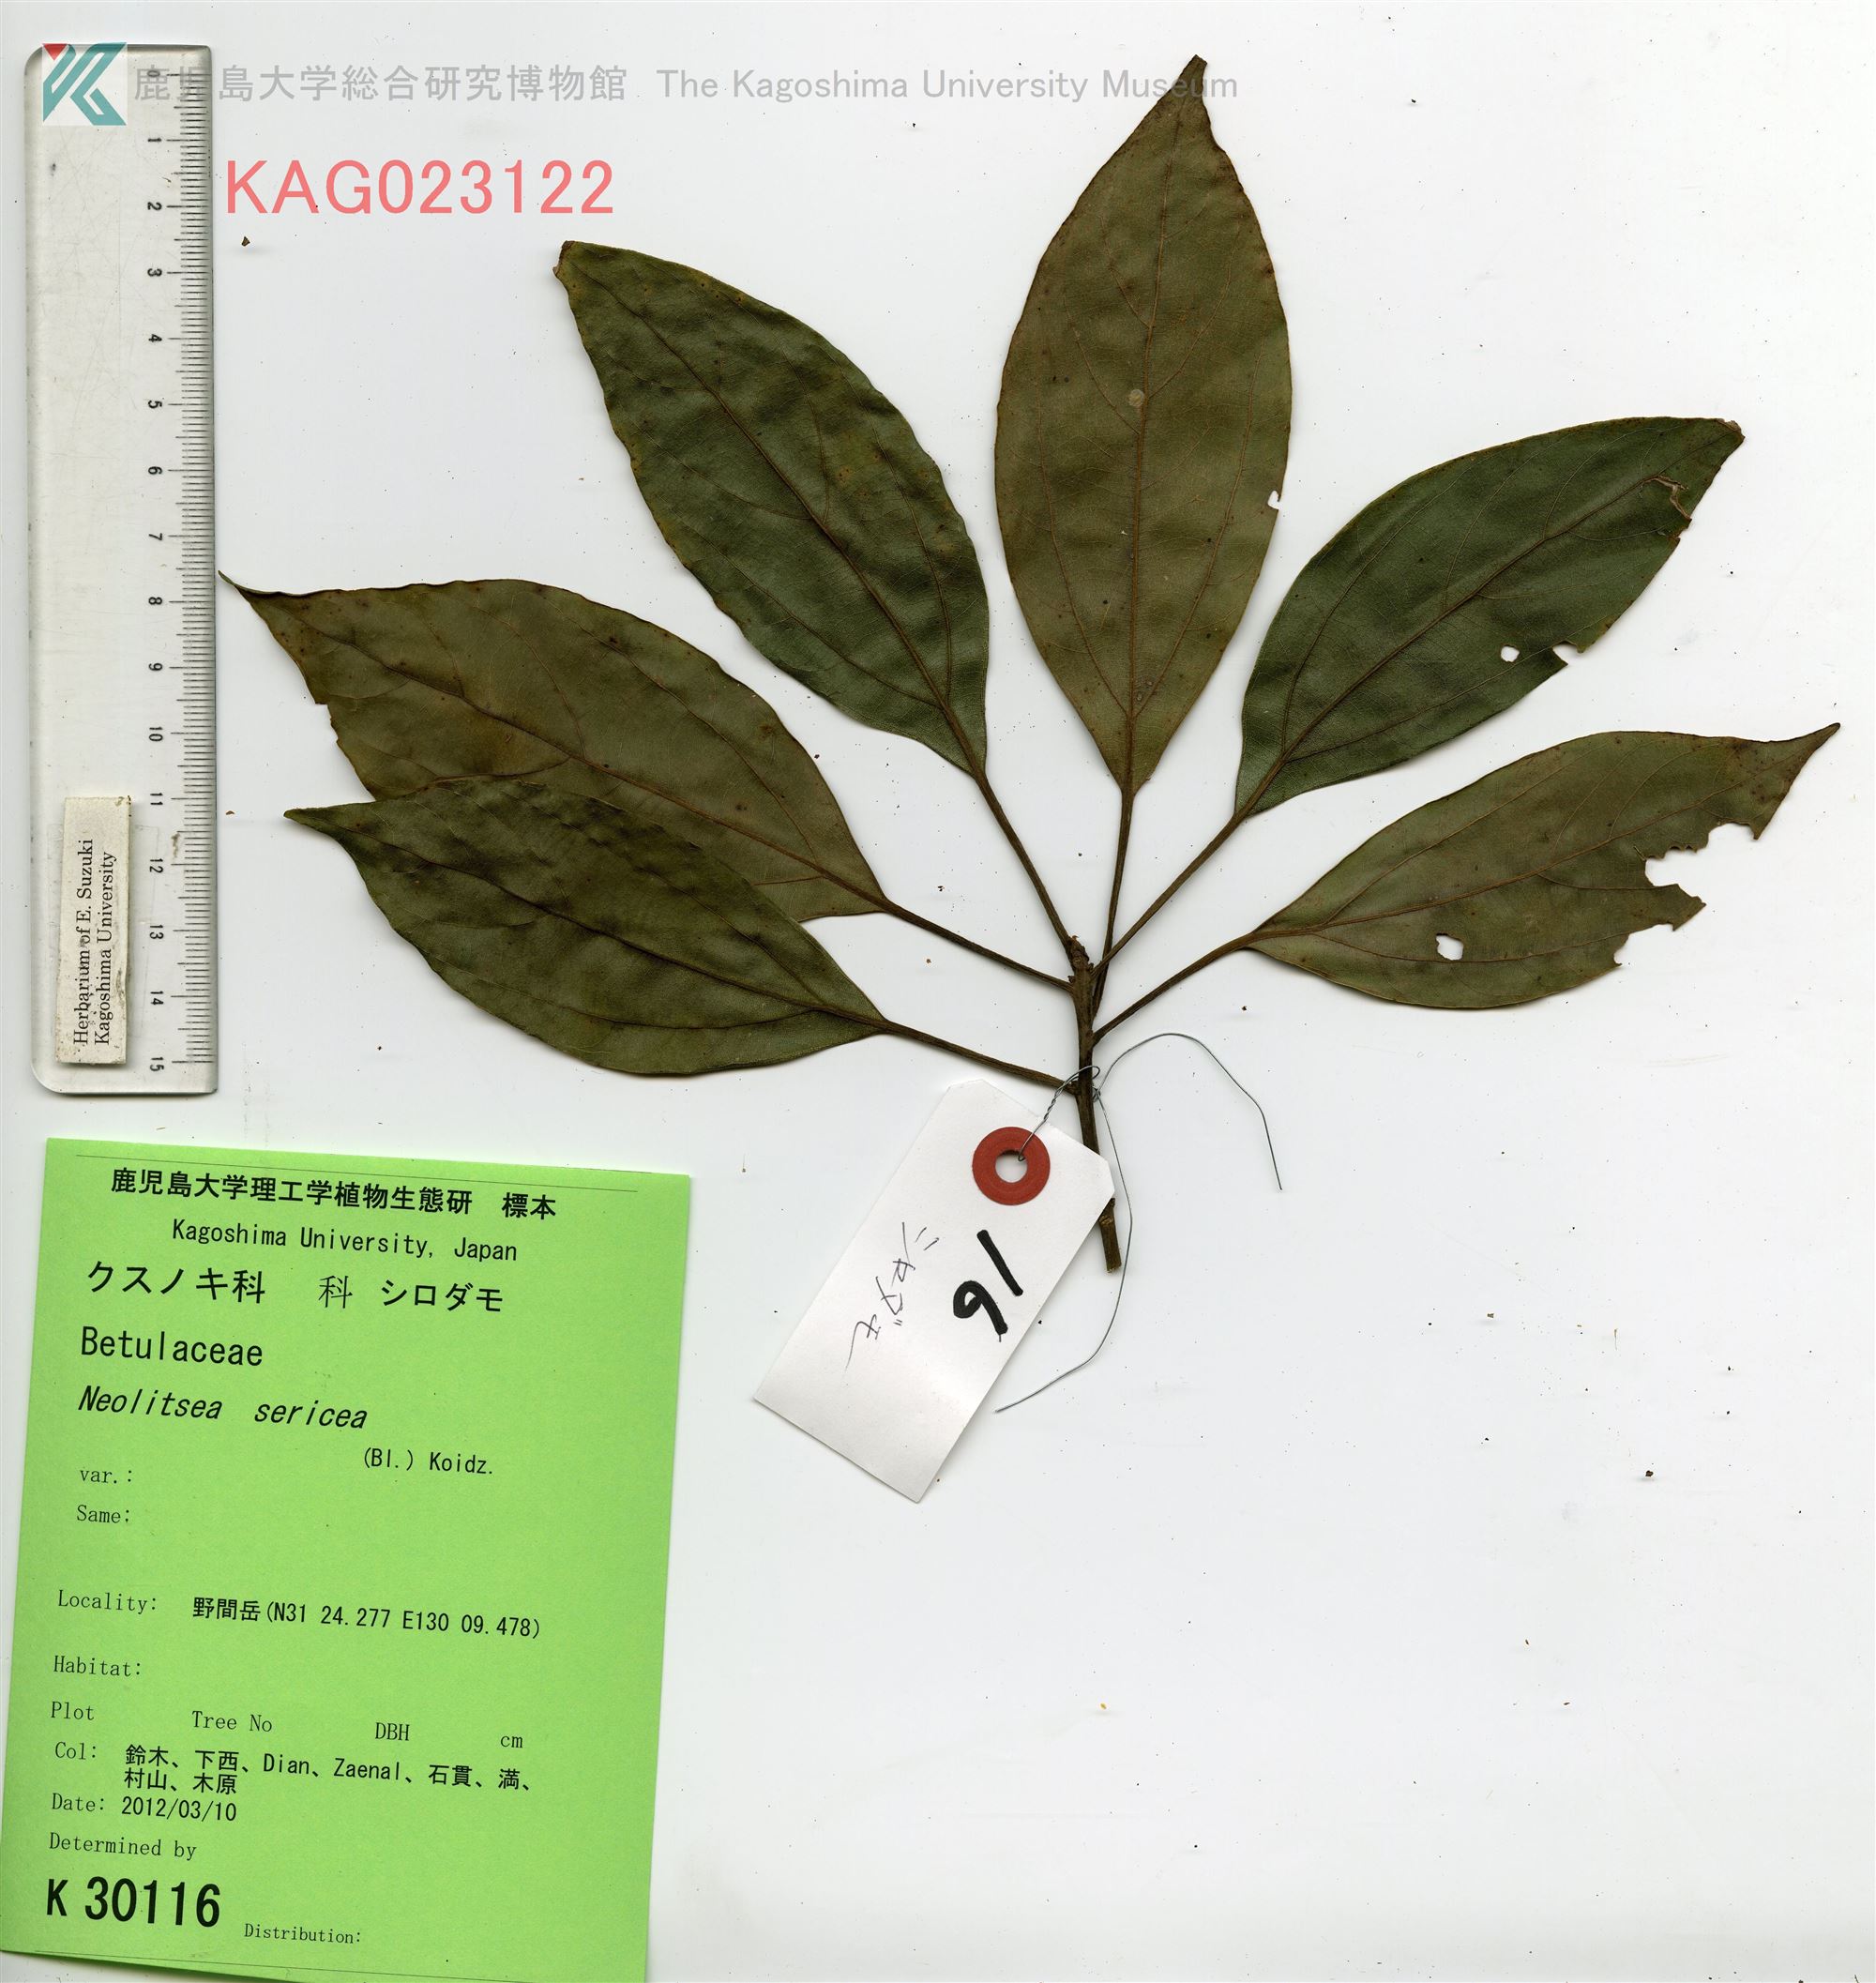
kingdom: Plantae
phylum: Tracheophyta
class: Magnoliopsida
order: Laurales
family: Lauraceae
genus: Neolitsea
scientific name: Neolitsea sericea
